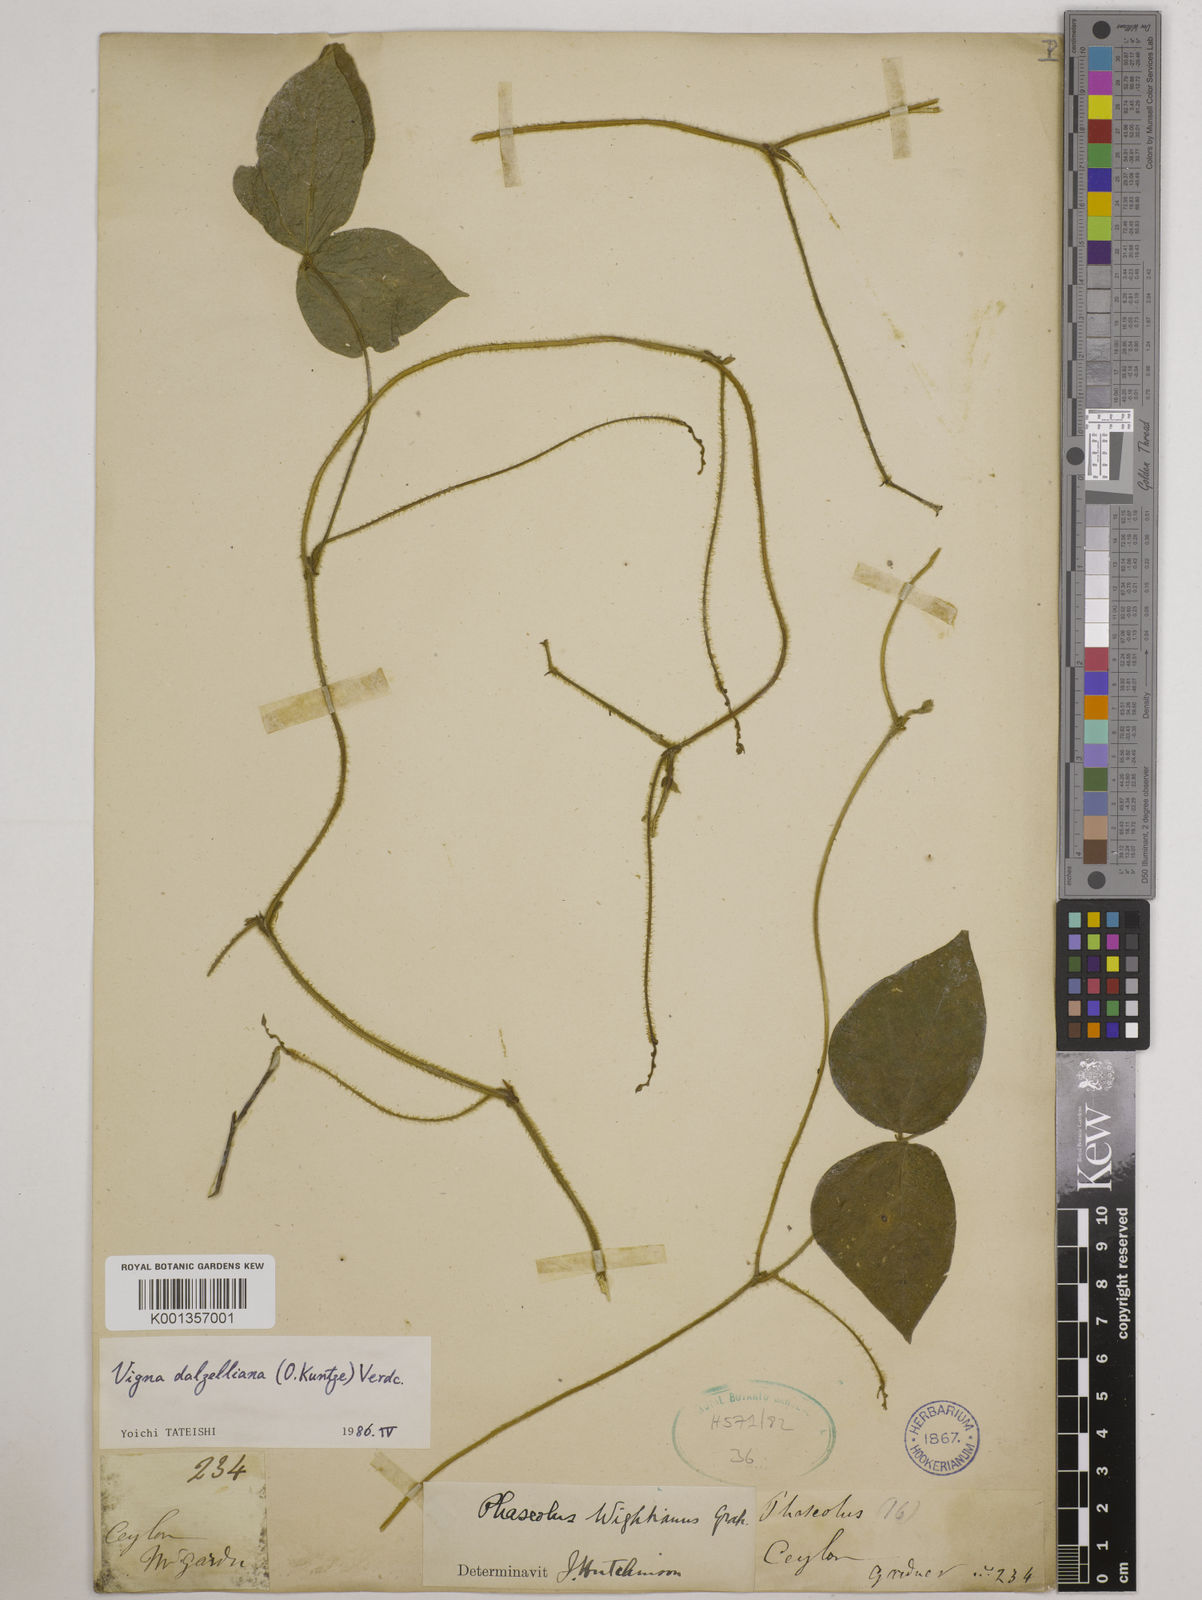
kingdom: Plantae
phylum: Tracheophyta
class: Magnoliopsida
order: Fabales
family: Fabaceae
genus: Vigna
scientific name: Vigna dalzelliana
